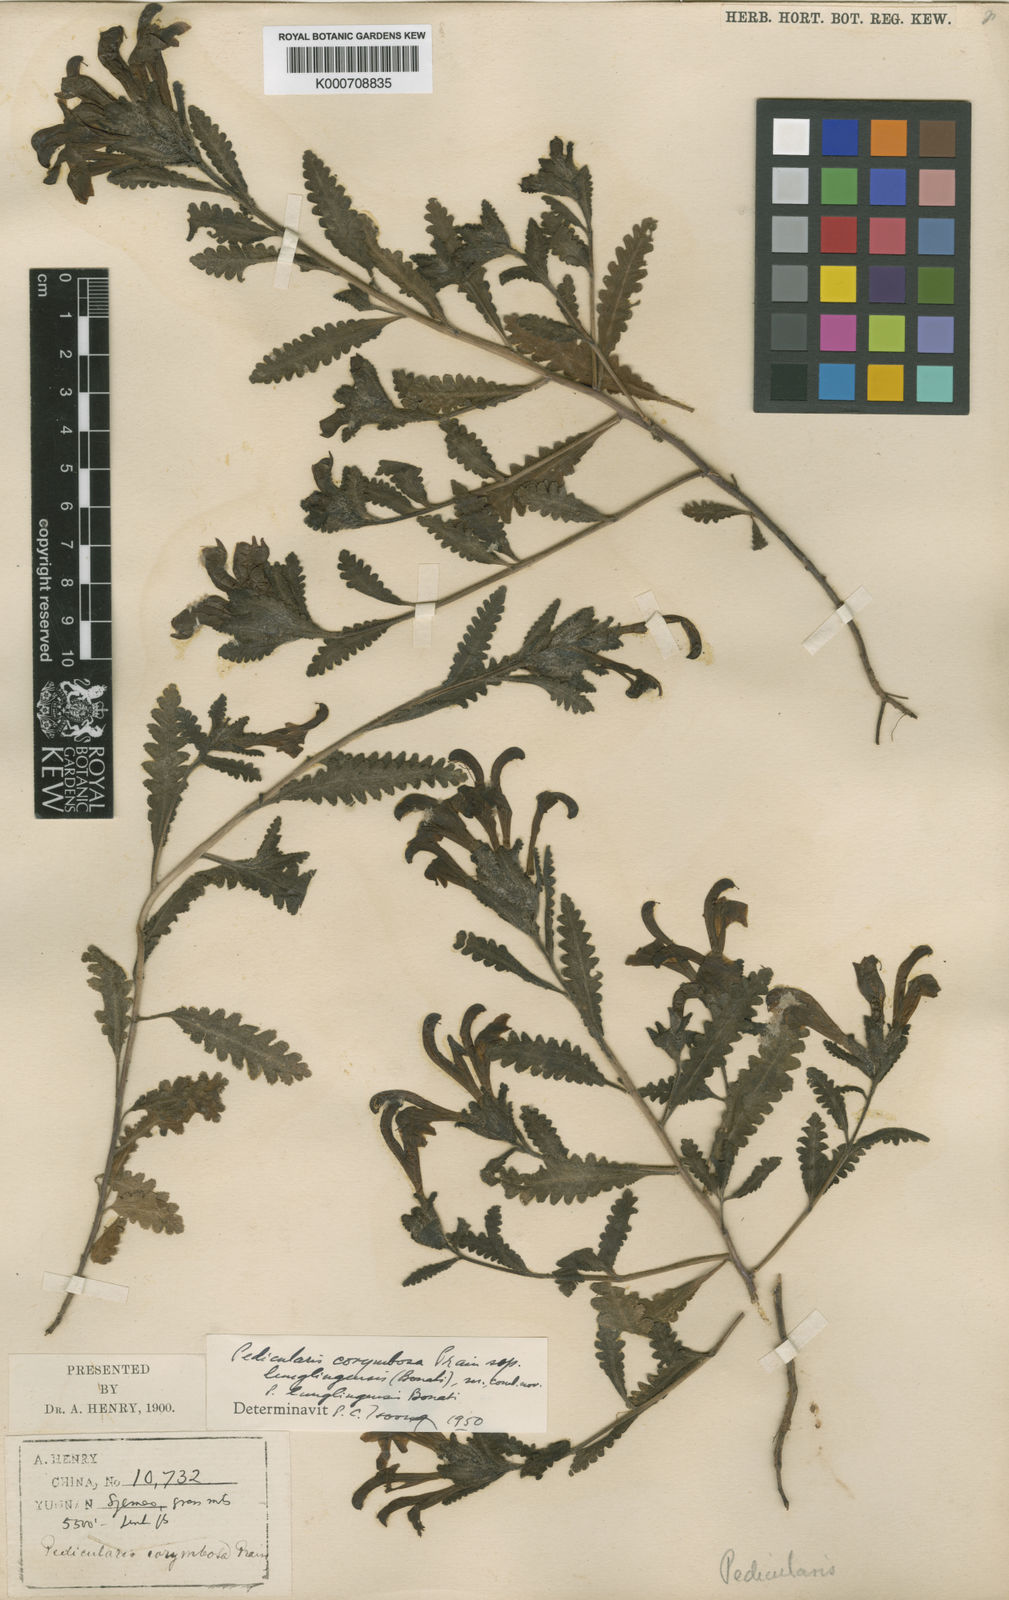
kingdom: Plantae
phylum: Tracheophyta
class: Magnoliopsida
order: Lamiales
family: Orobanchaceae
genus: Pedicularis
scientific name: Pedicularis
